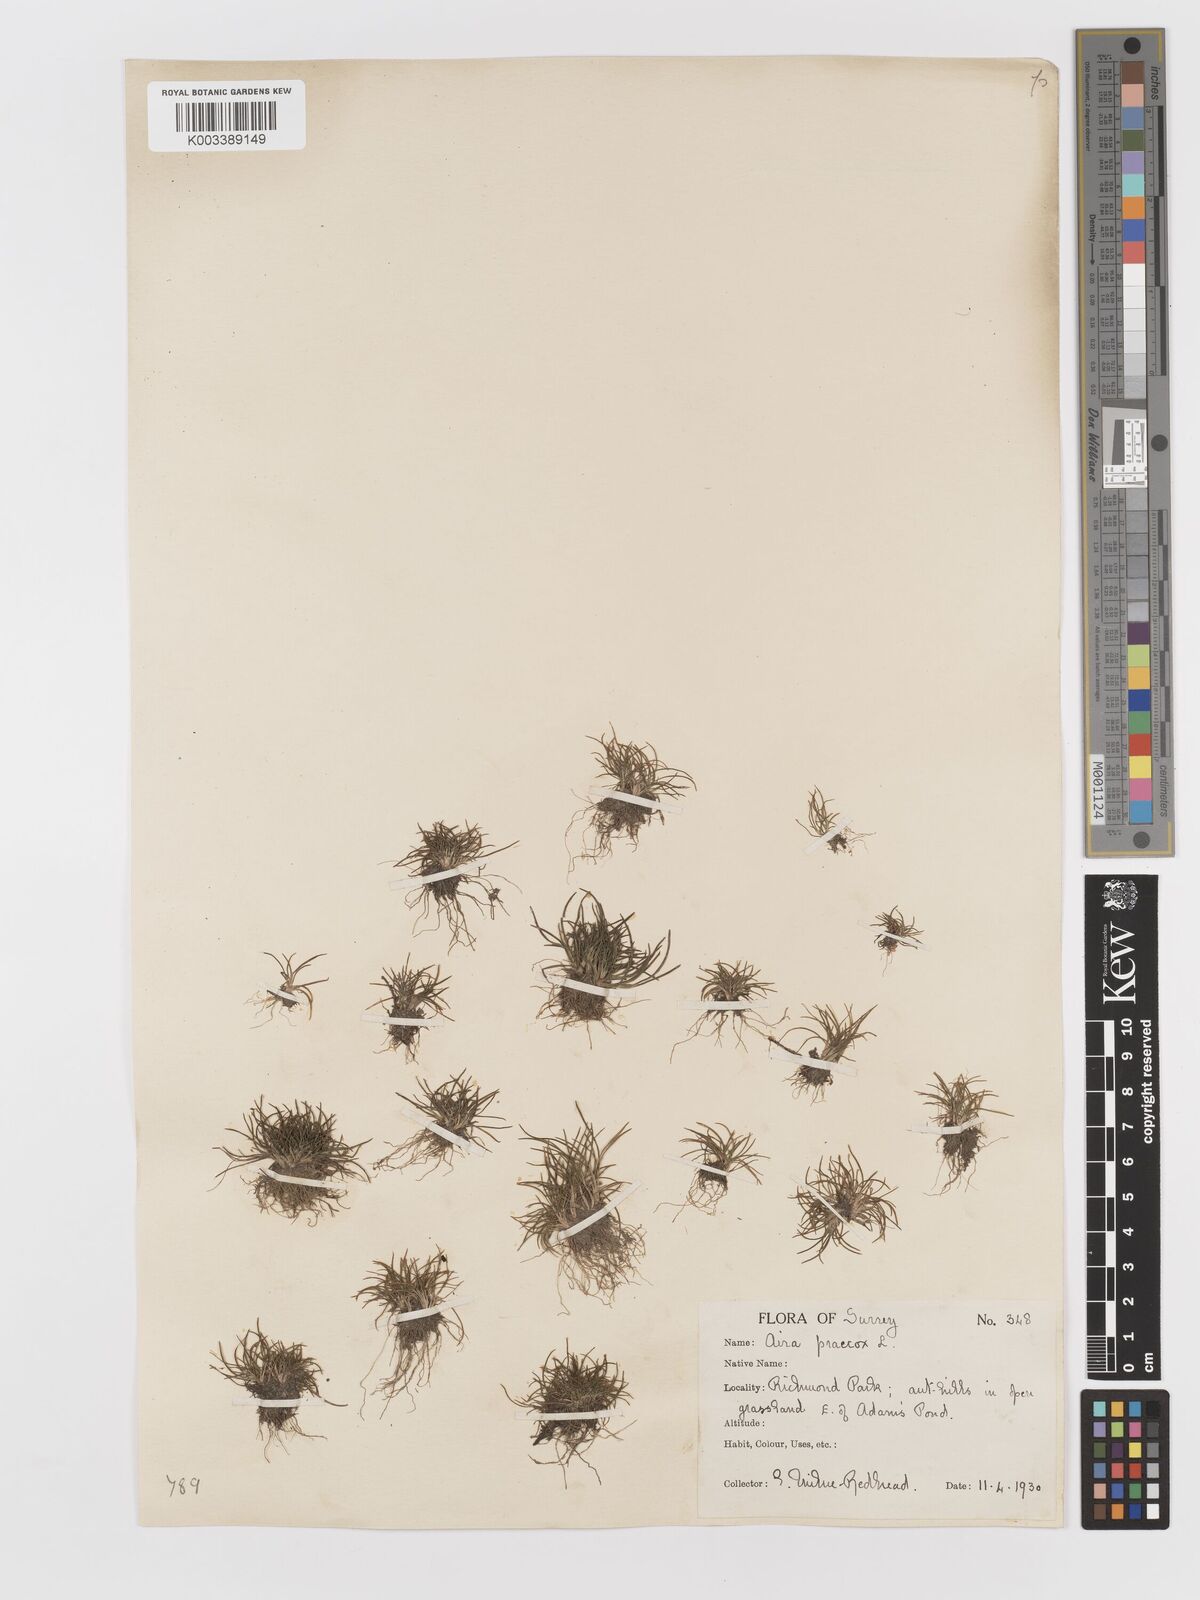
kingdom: Plantae
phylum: Tracheophyta
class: Liliopsida
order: Poales
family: Poaceae
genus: Aira
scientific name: Aira praecox
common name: Early hair-grass
